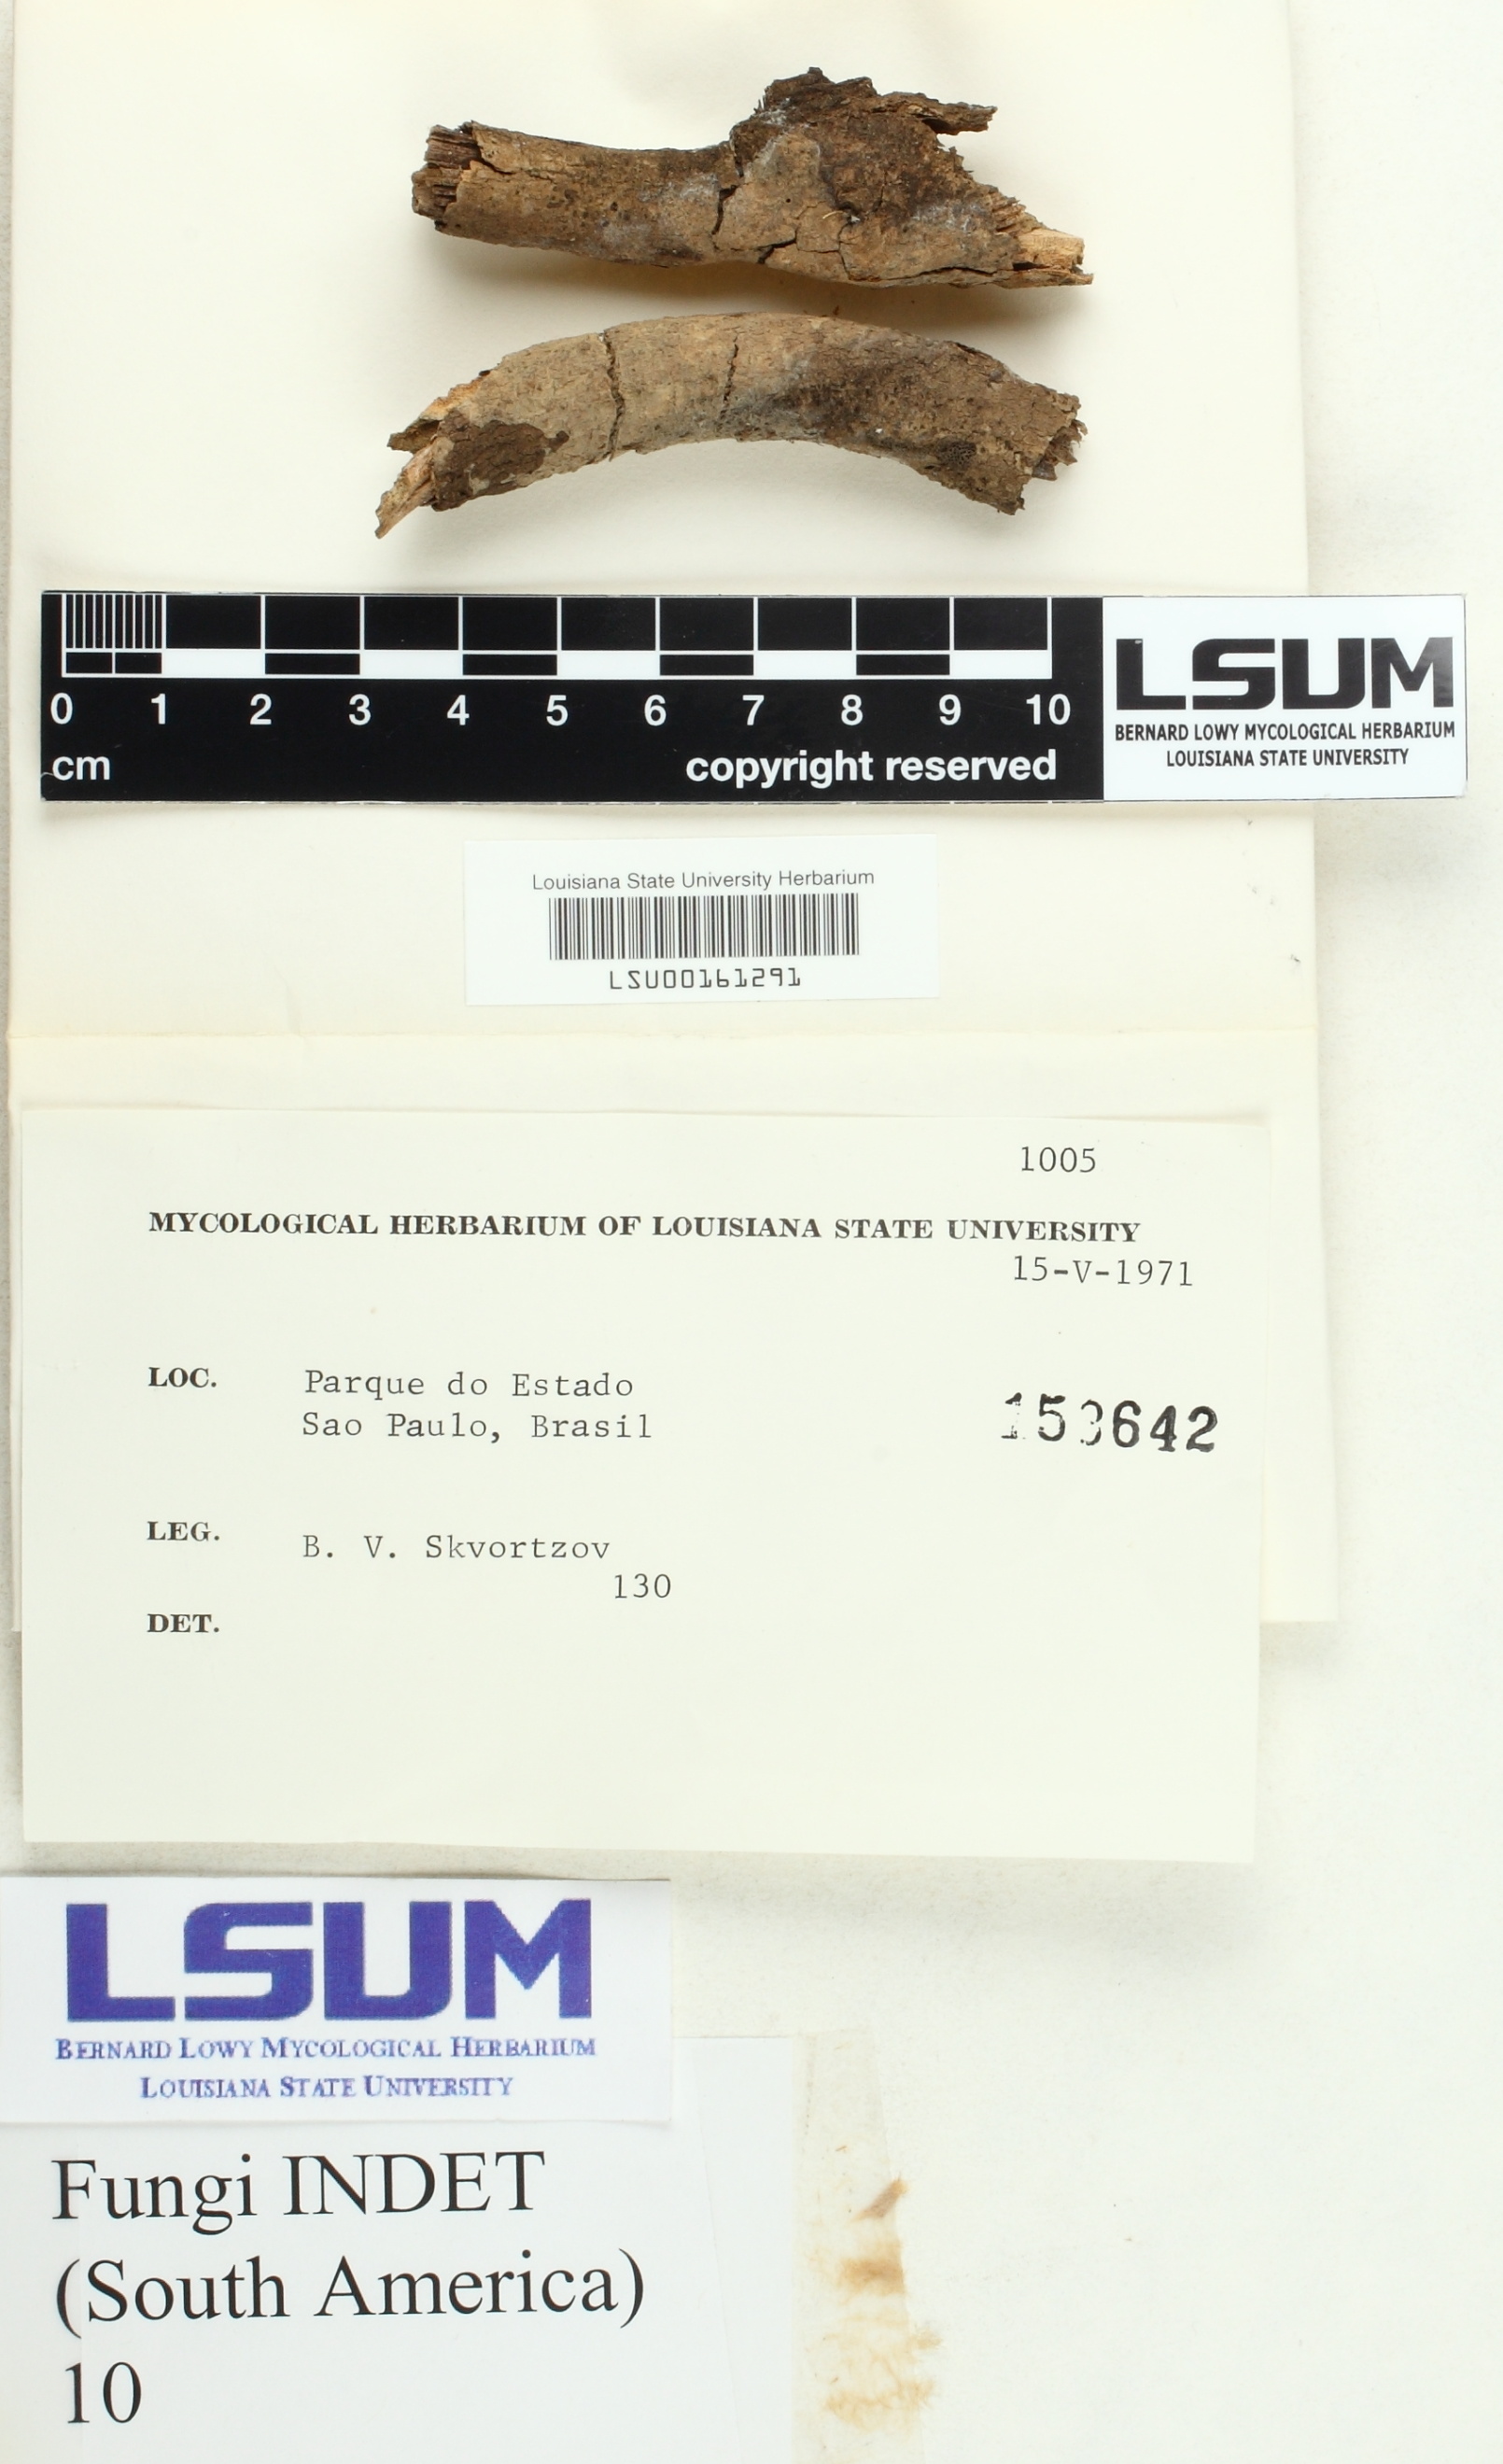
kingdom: Fungi
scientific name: Fungi
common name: Fungi
